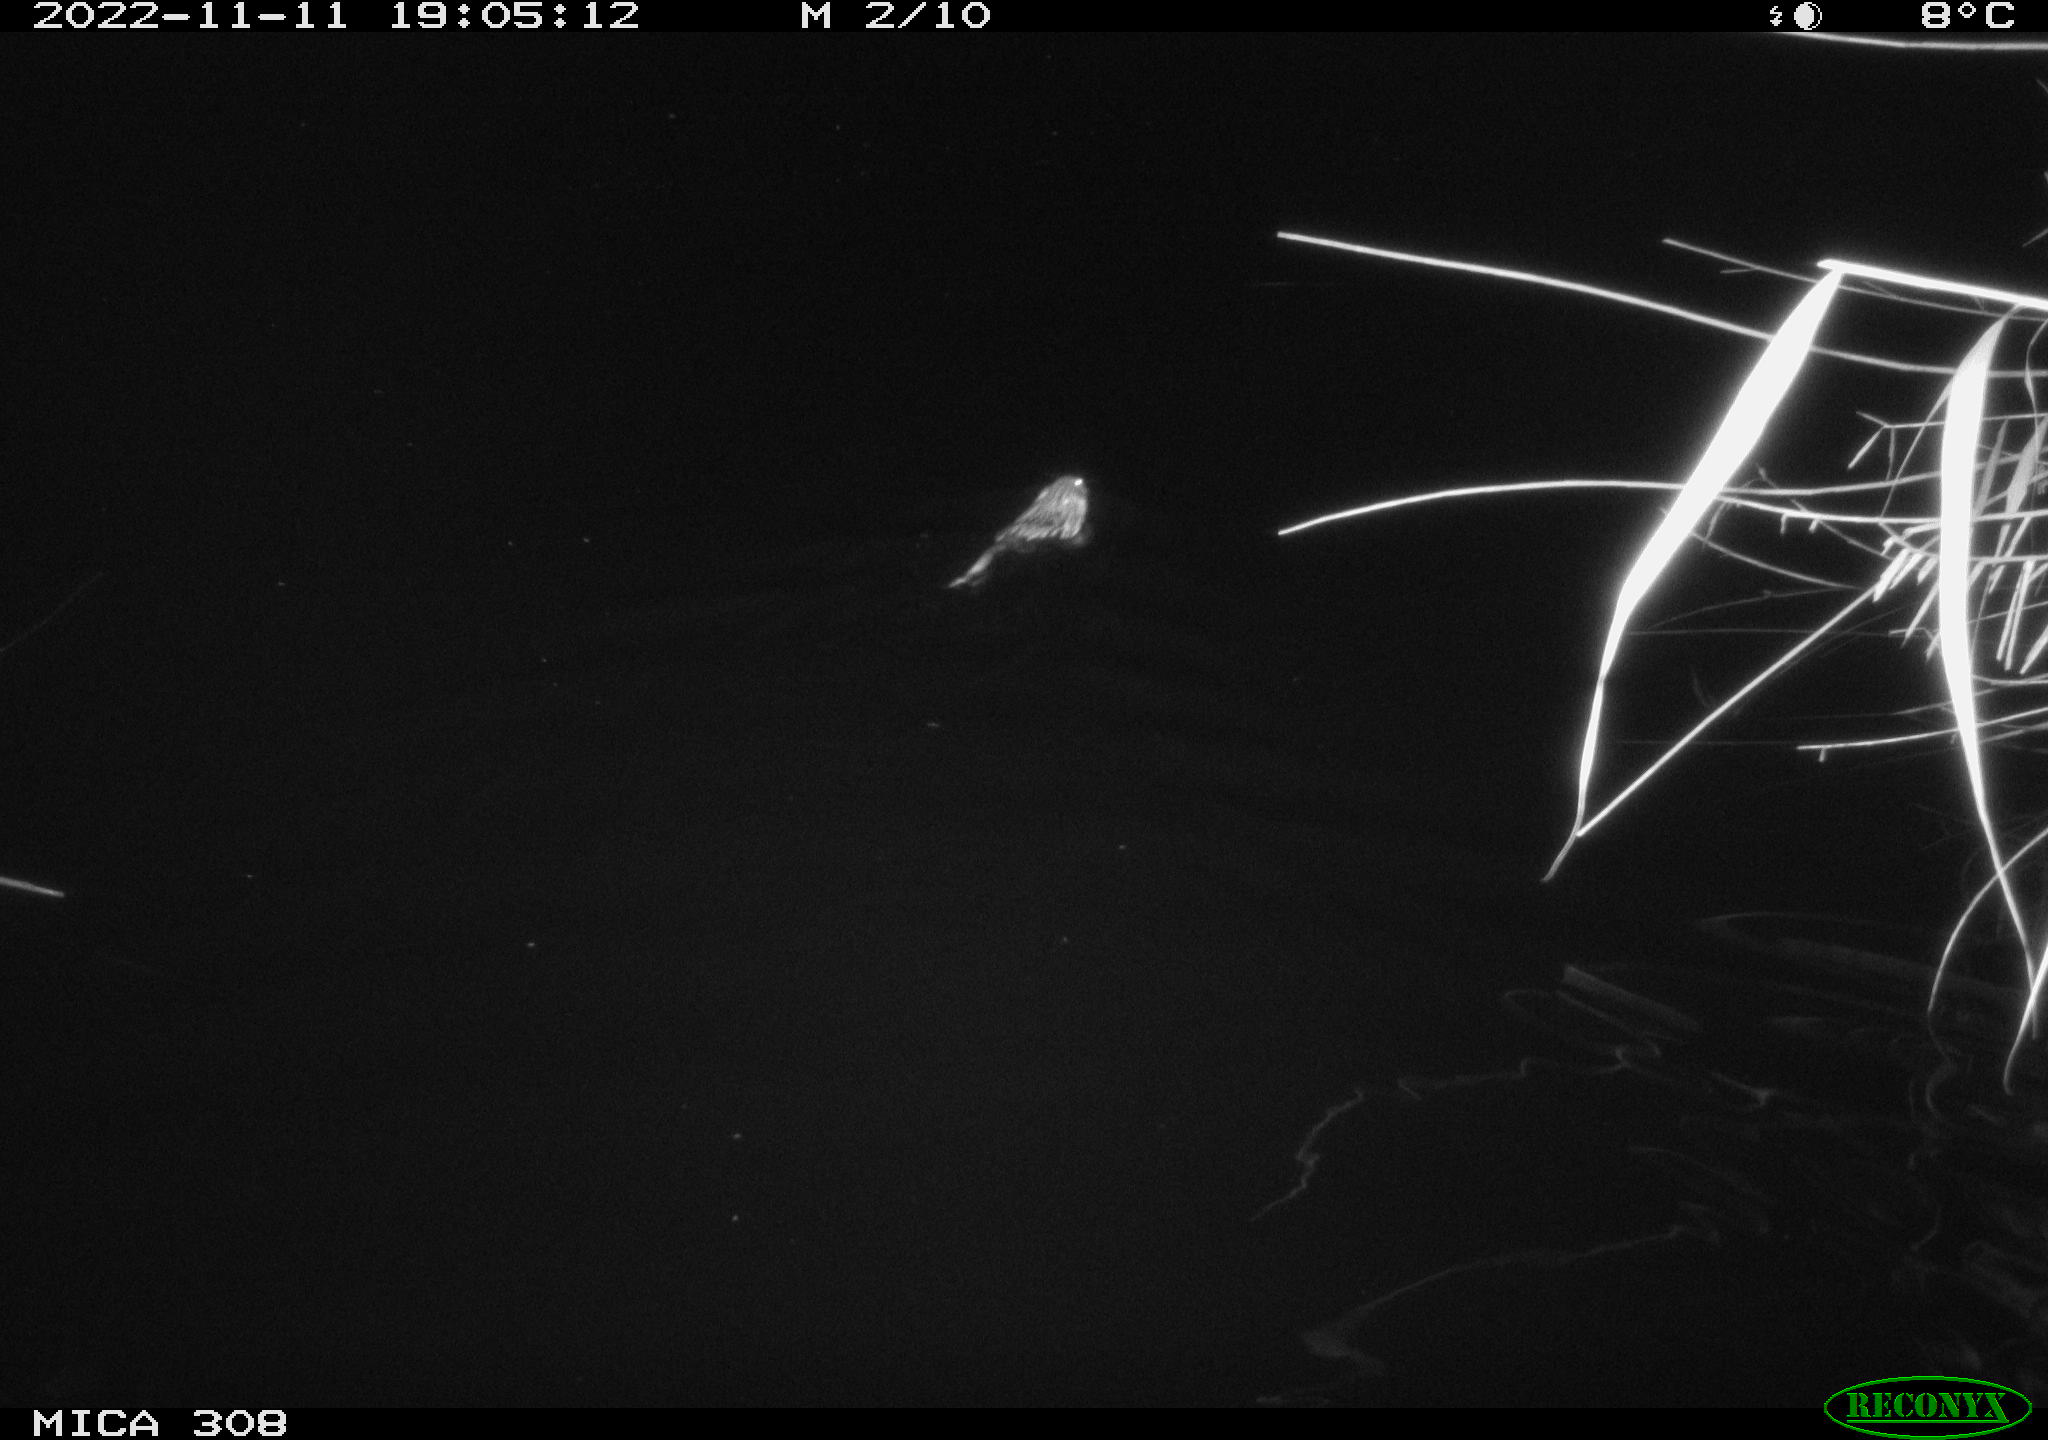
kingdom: Animalia
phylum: Chordata
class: Mammalia
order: Rodentia
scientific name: Rodentia
